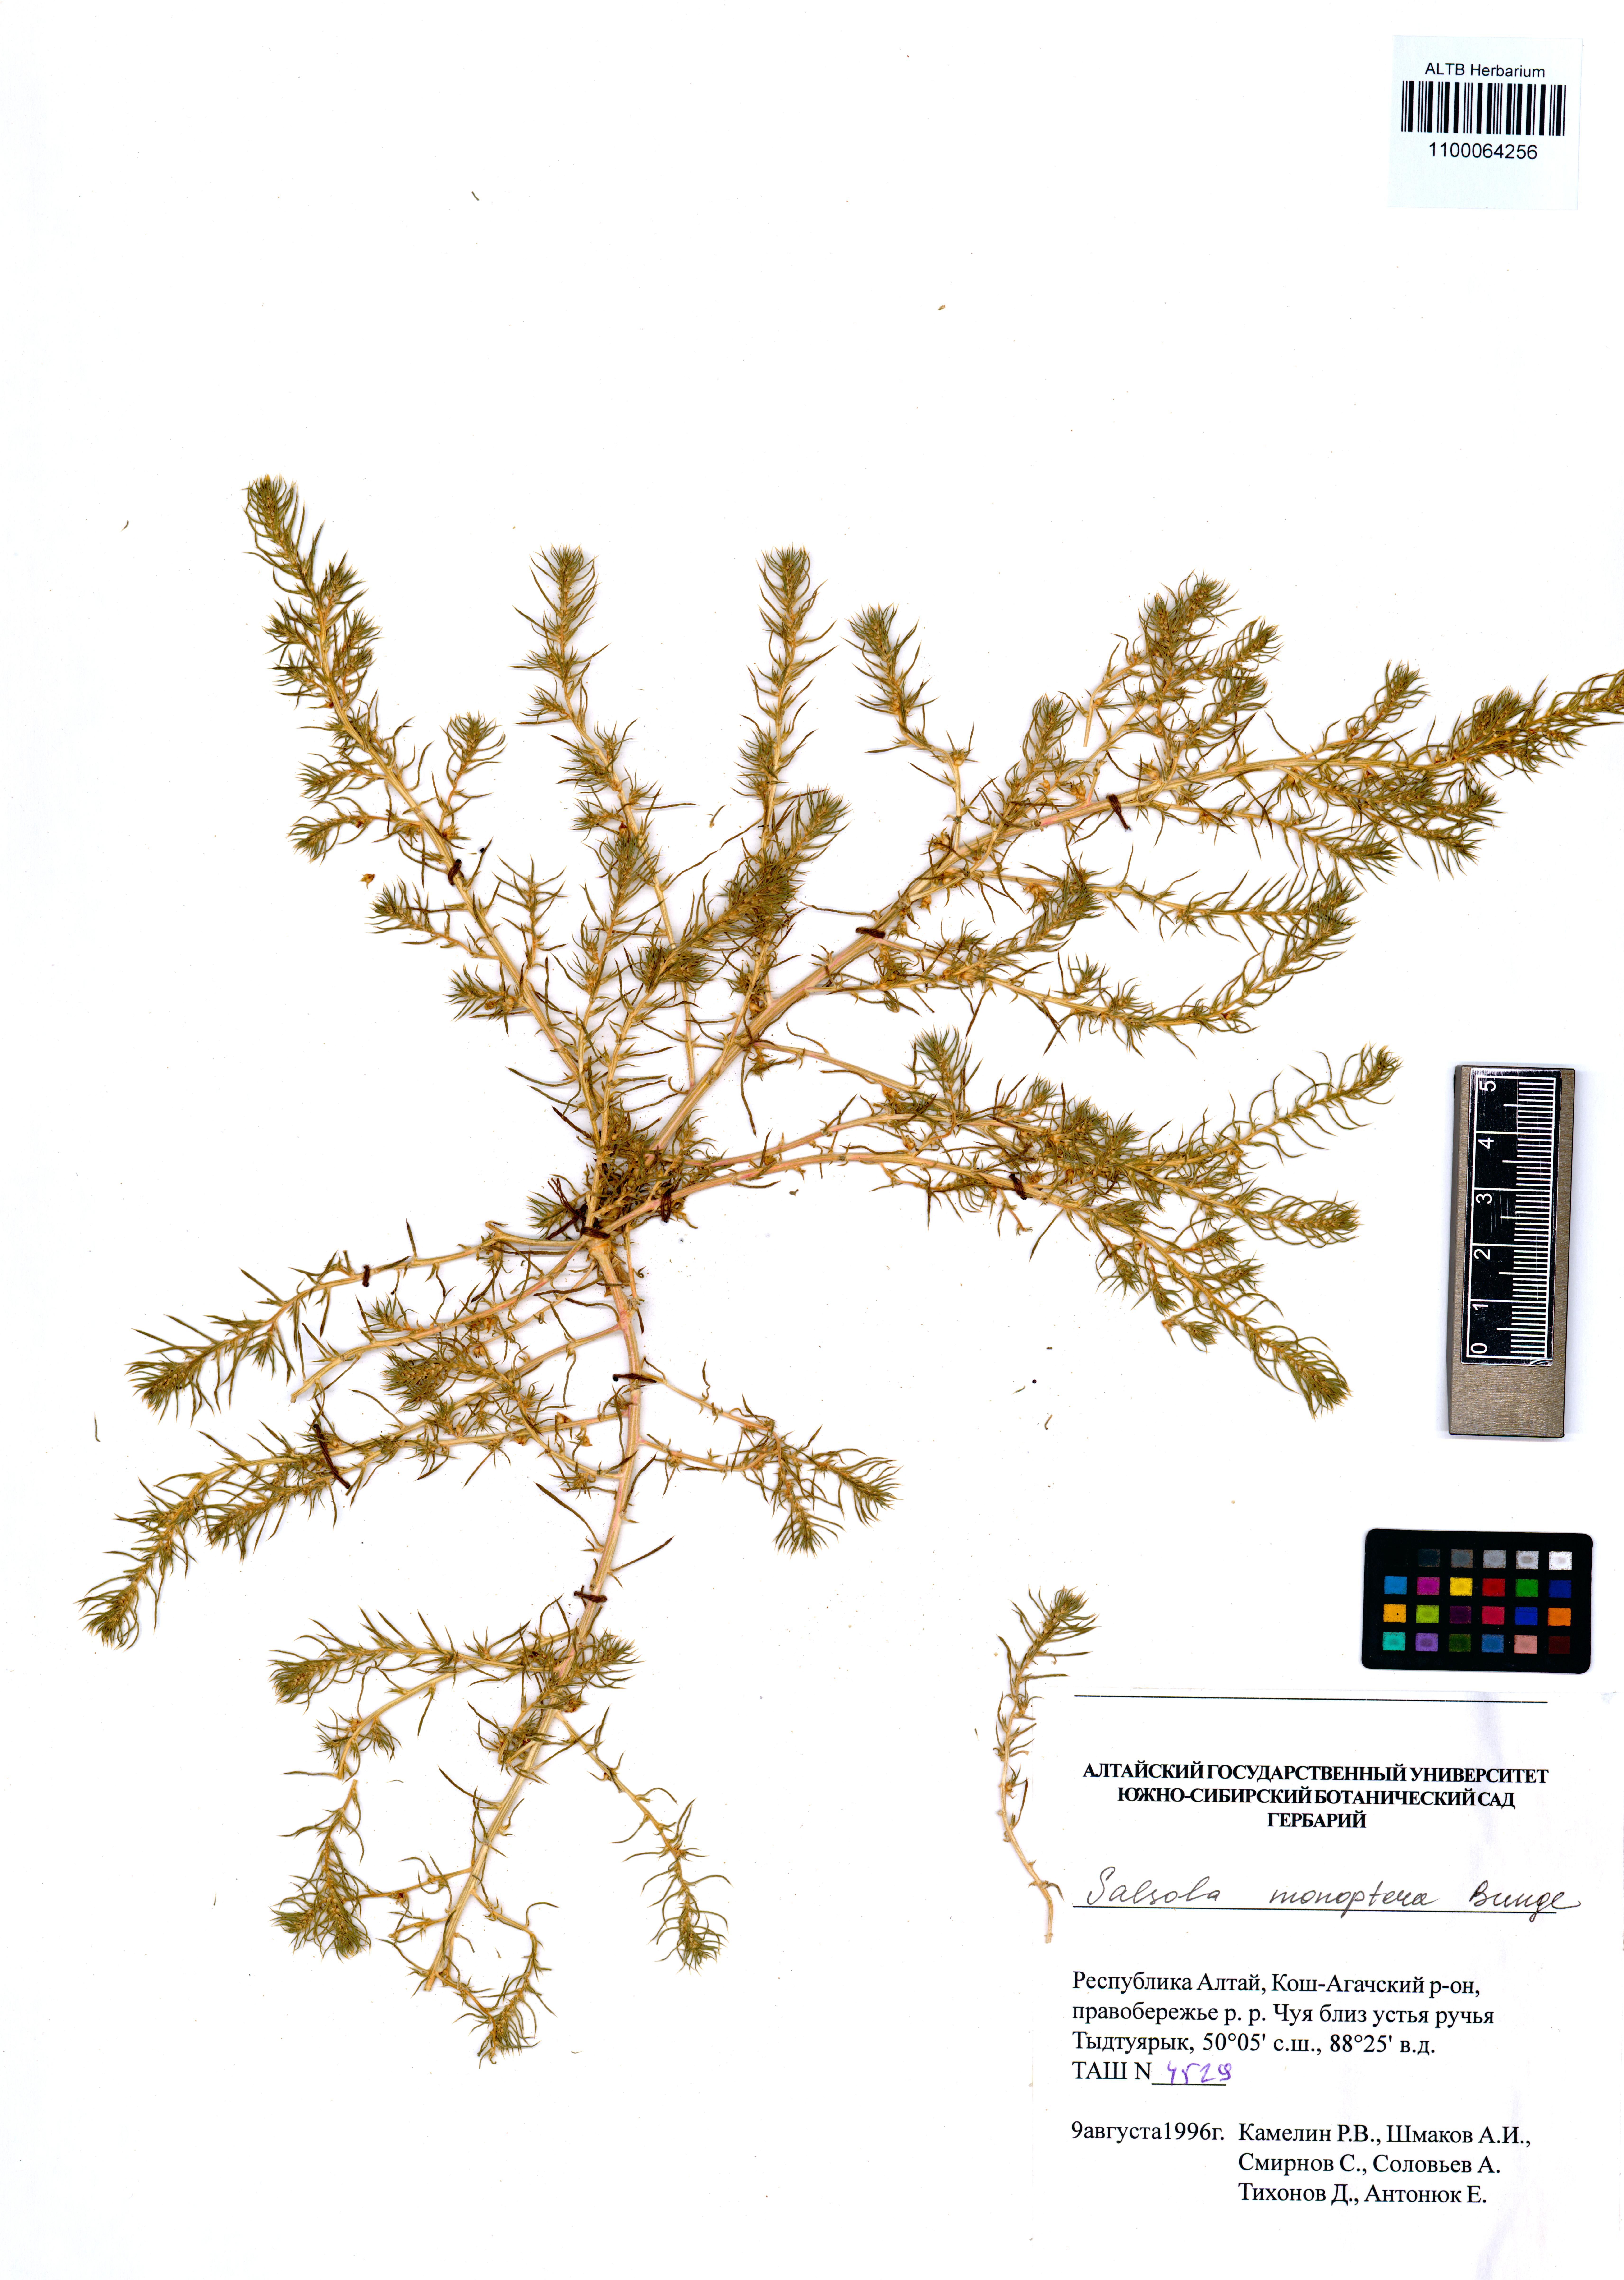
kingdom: Plantae
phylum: Tracheophyta
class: Magnoliopsida
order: Caryophyllales
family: Amaranthaceae
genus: Salsola
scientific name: Salsola monoptera
